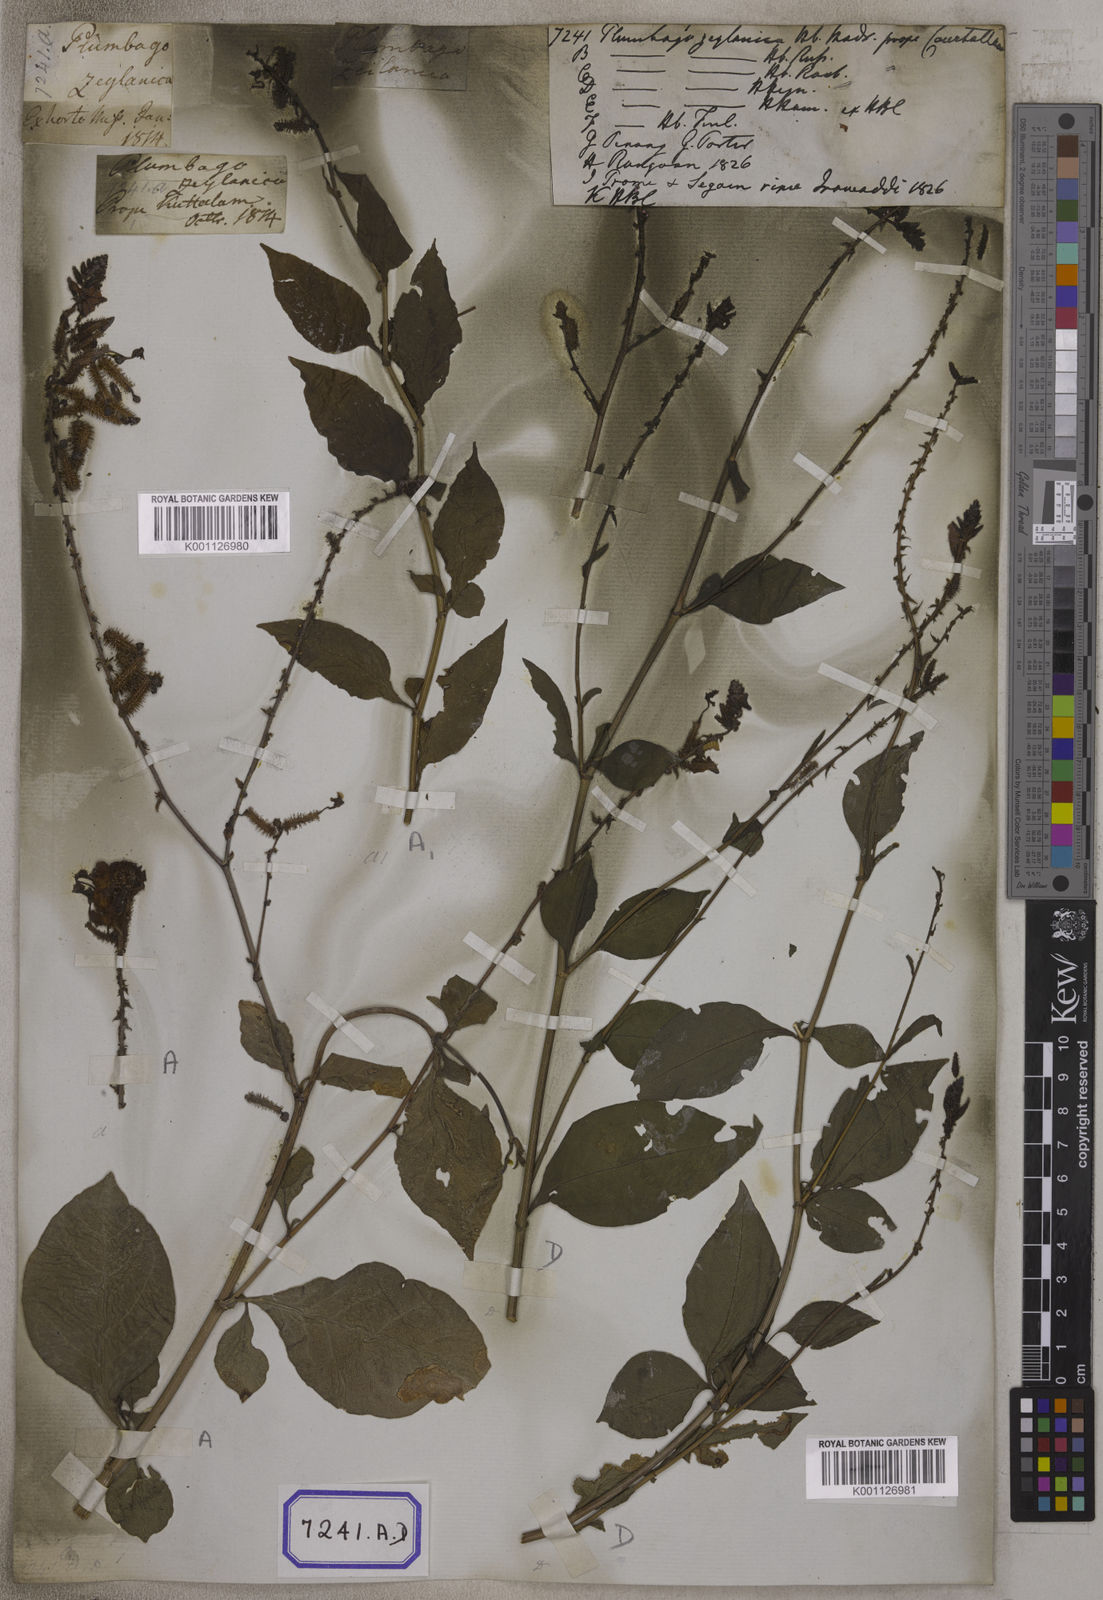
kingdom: Plantae
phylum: Tracheophyta
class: Magnoliopsida
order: Caryophyllales
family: Plumbaginaceae
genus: Plumbago
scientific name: Plumbago zeylanica
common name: Doctorbush
